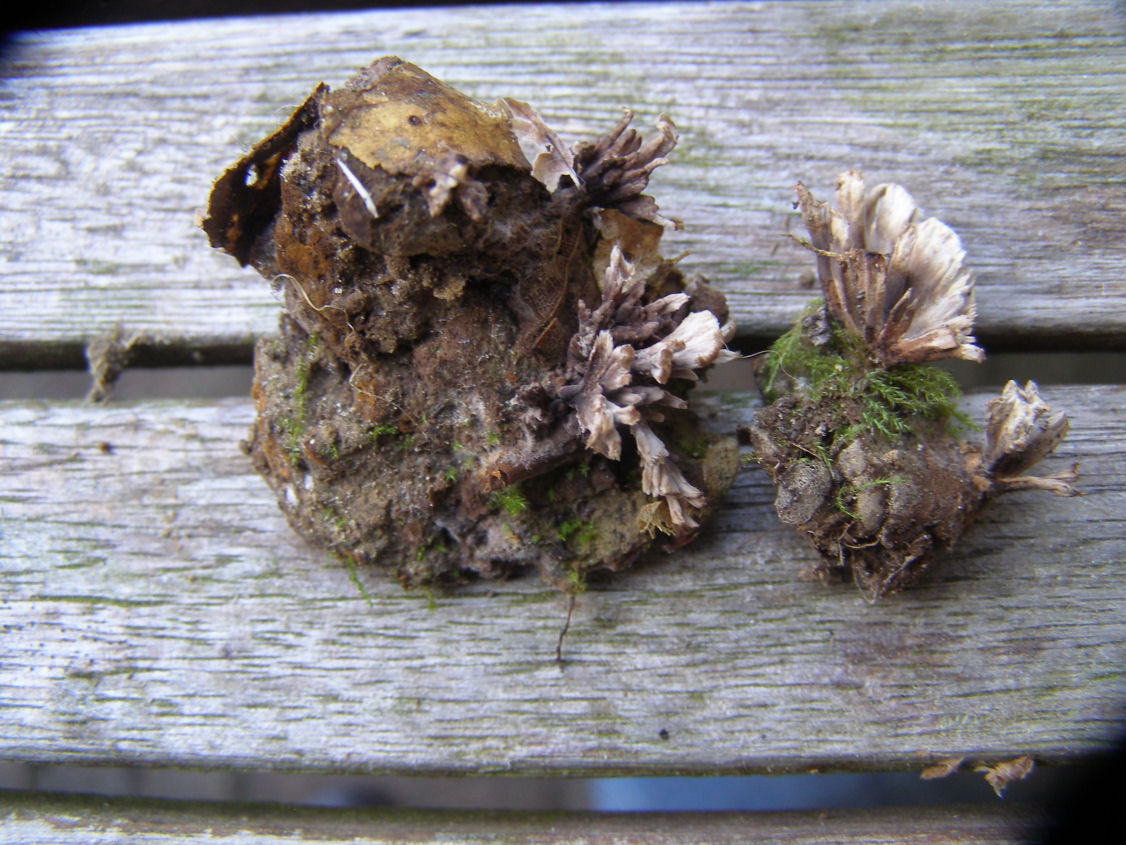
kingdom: Fungi
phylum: Basidiomycota
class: Agaricomycetes
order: Thelephorales
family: Thelephoraceae
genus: Thelephora
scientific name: Thelephora
